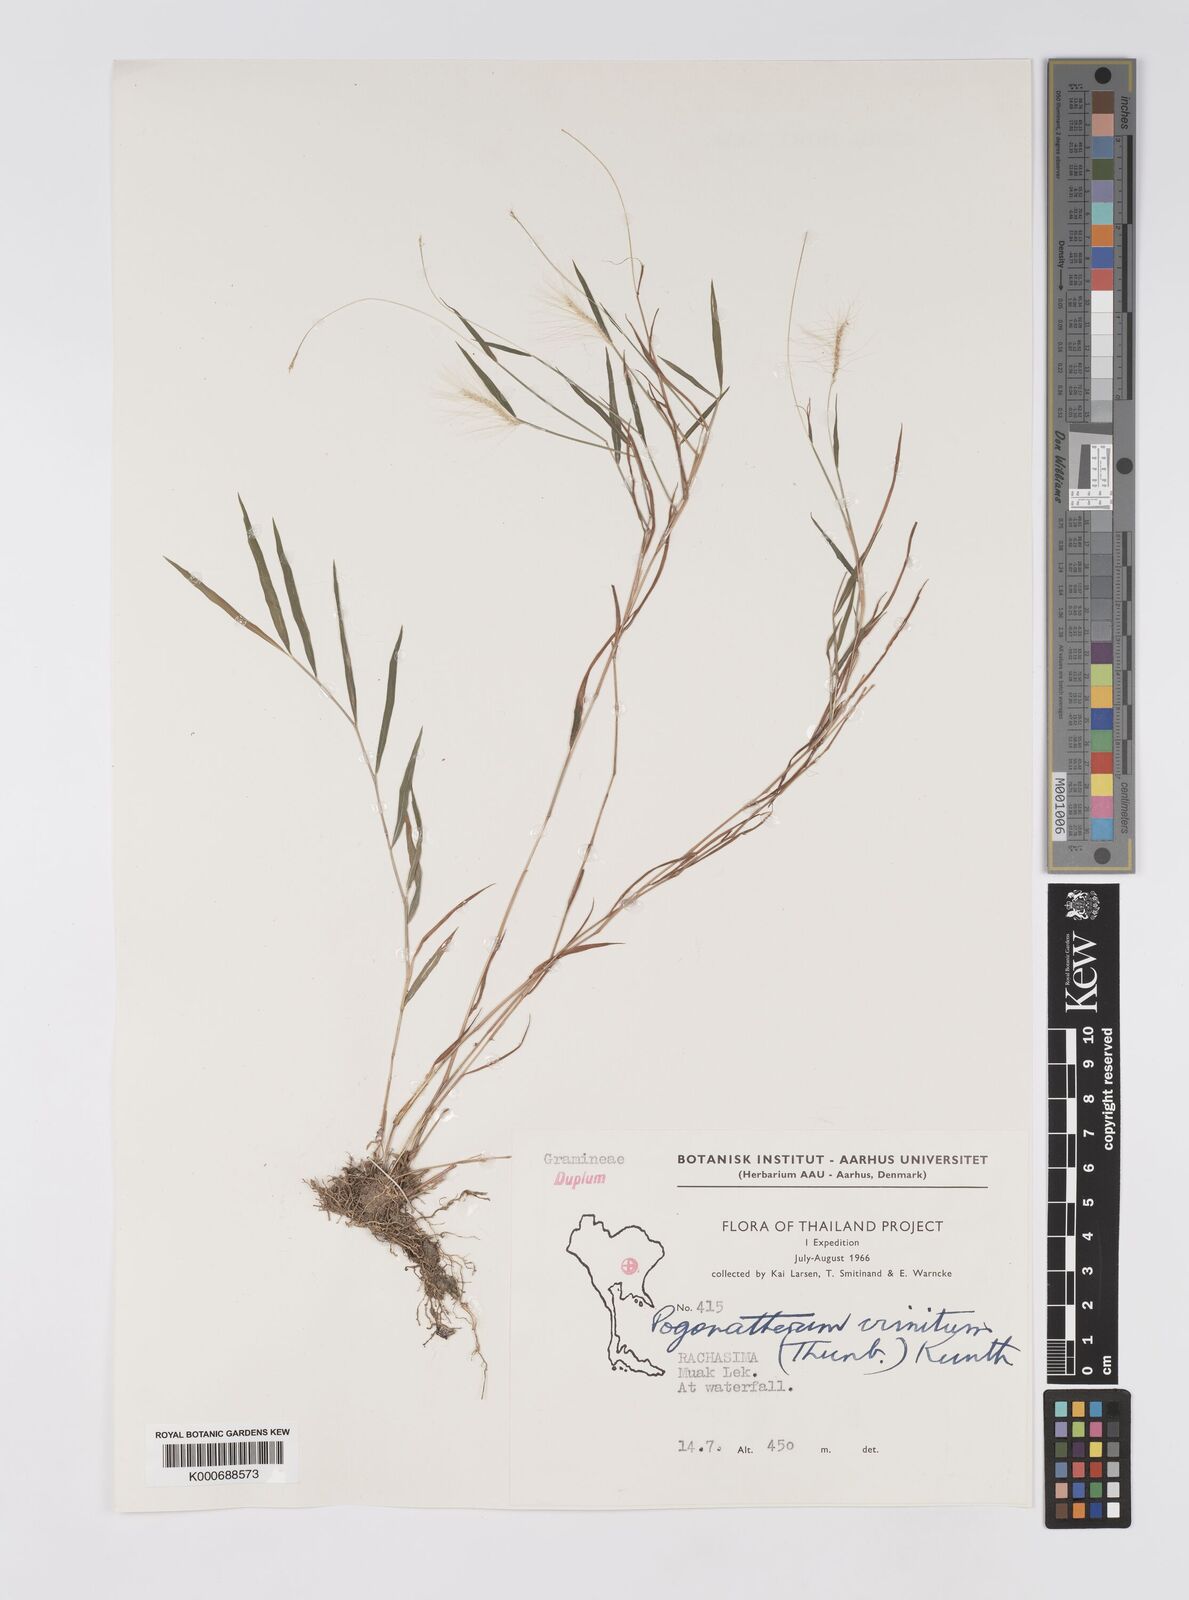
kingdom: Plantae
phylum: Tracheophyta
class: Liliopsida
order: Poales
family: Poaceae
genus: Pogonatherum
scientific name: Pogonatherum crinitum
